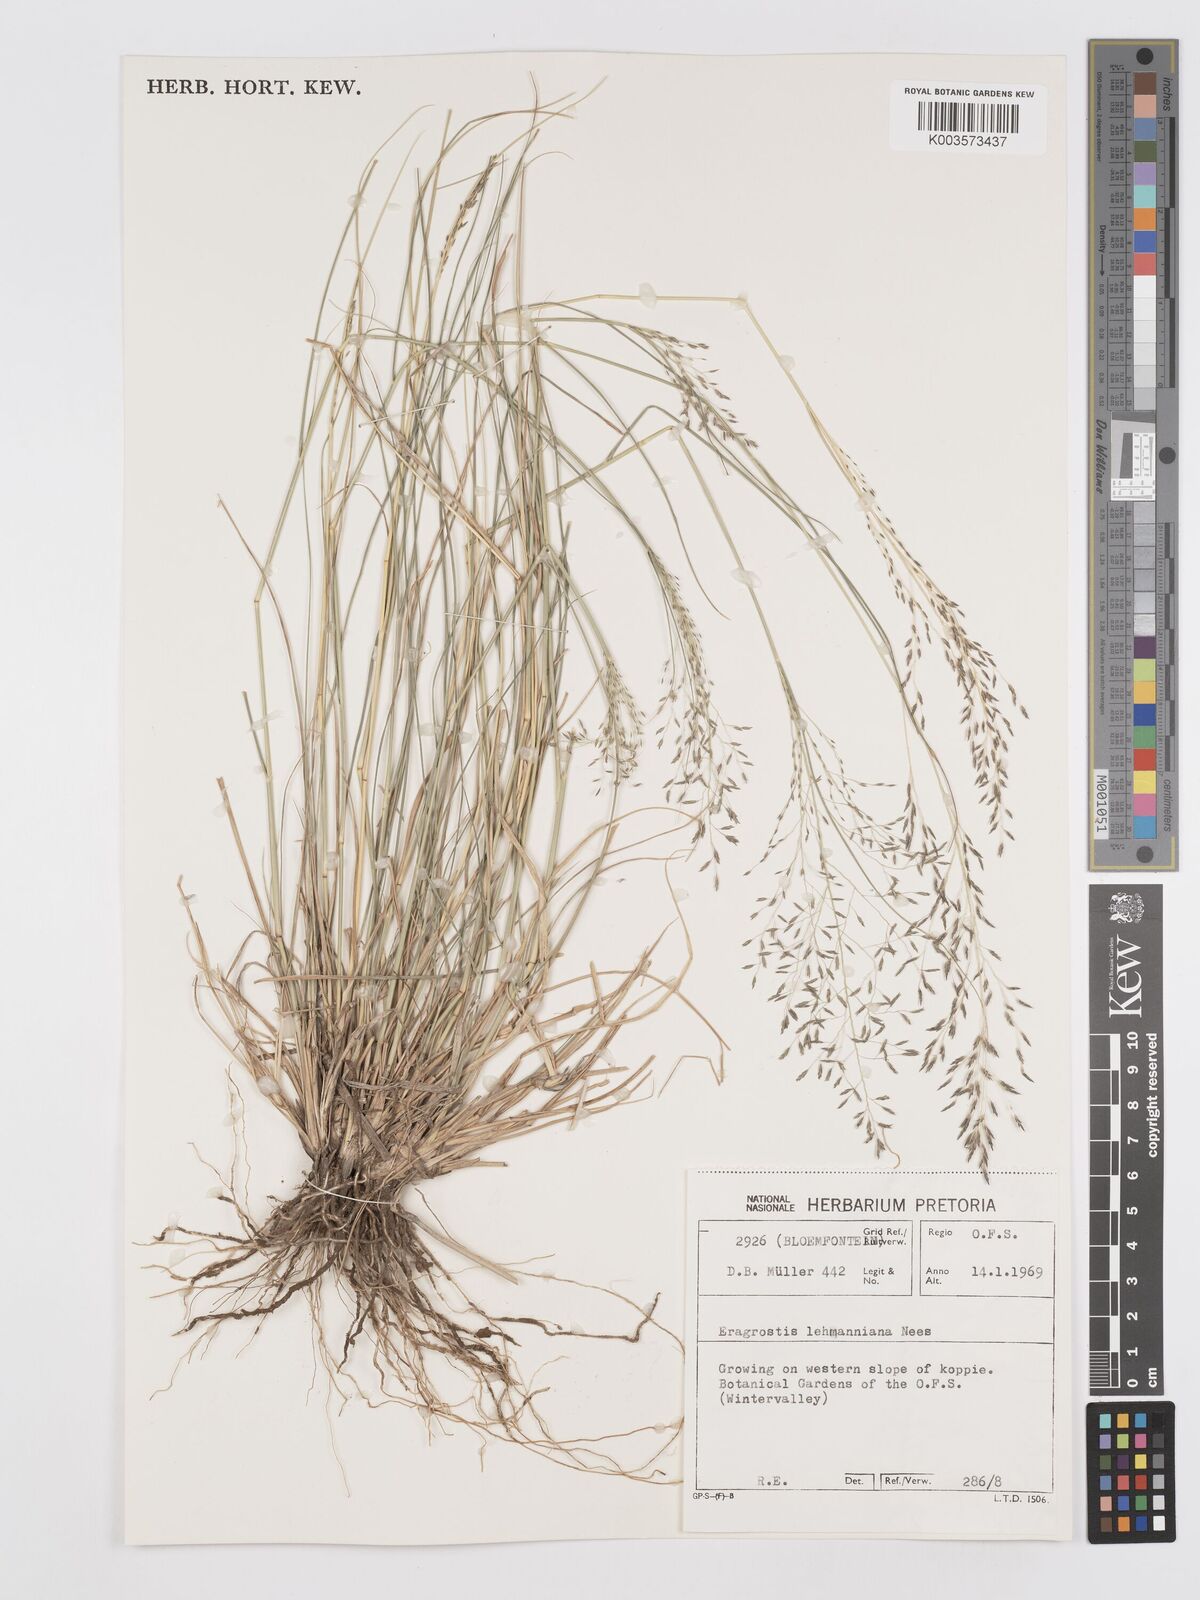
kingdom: Plantae
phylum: Tracheophyta
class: Liliopsida
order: Poales
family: Poaceae
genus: Eragrostis
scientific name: Eragrostis lehmanniana
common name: Lehmann lovegrass
